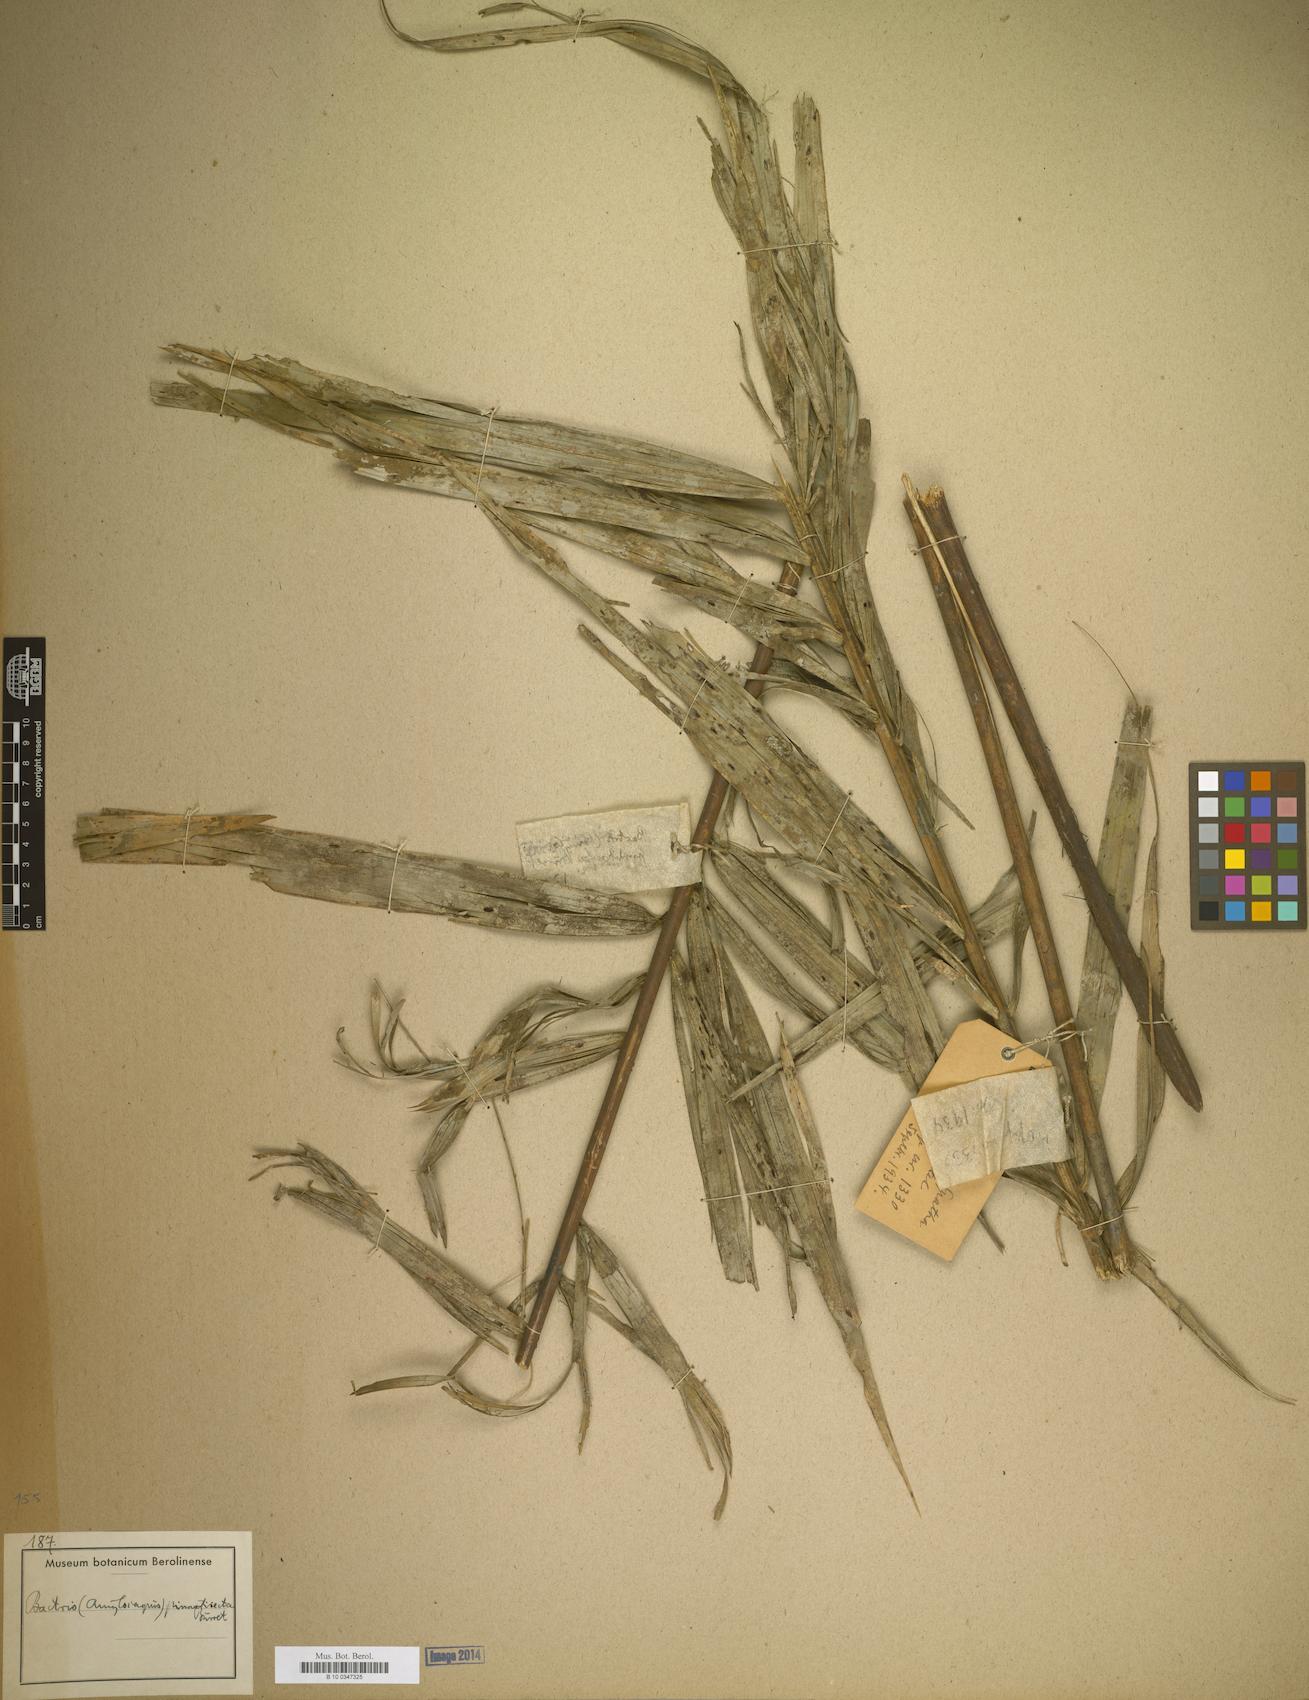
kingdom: Plantae
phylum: Tracheophyta
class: Liliopsida
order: Arecales
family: Arecaceae
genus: Bactris
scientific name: Bactris
